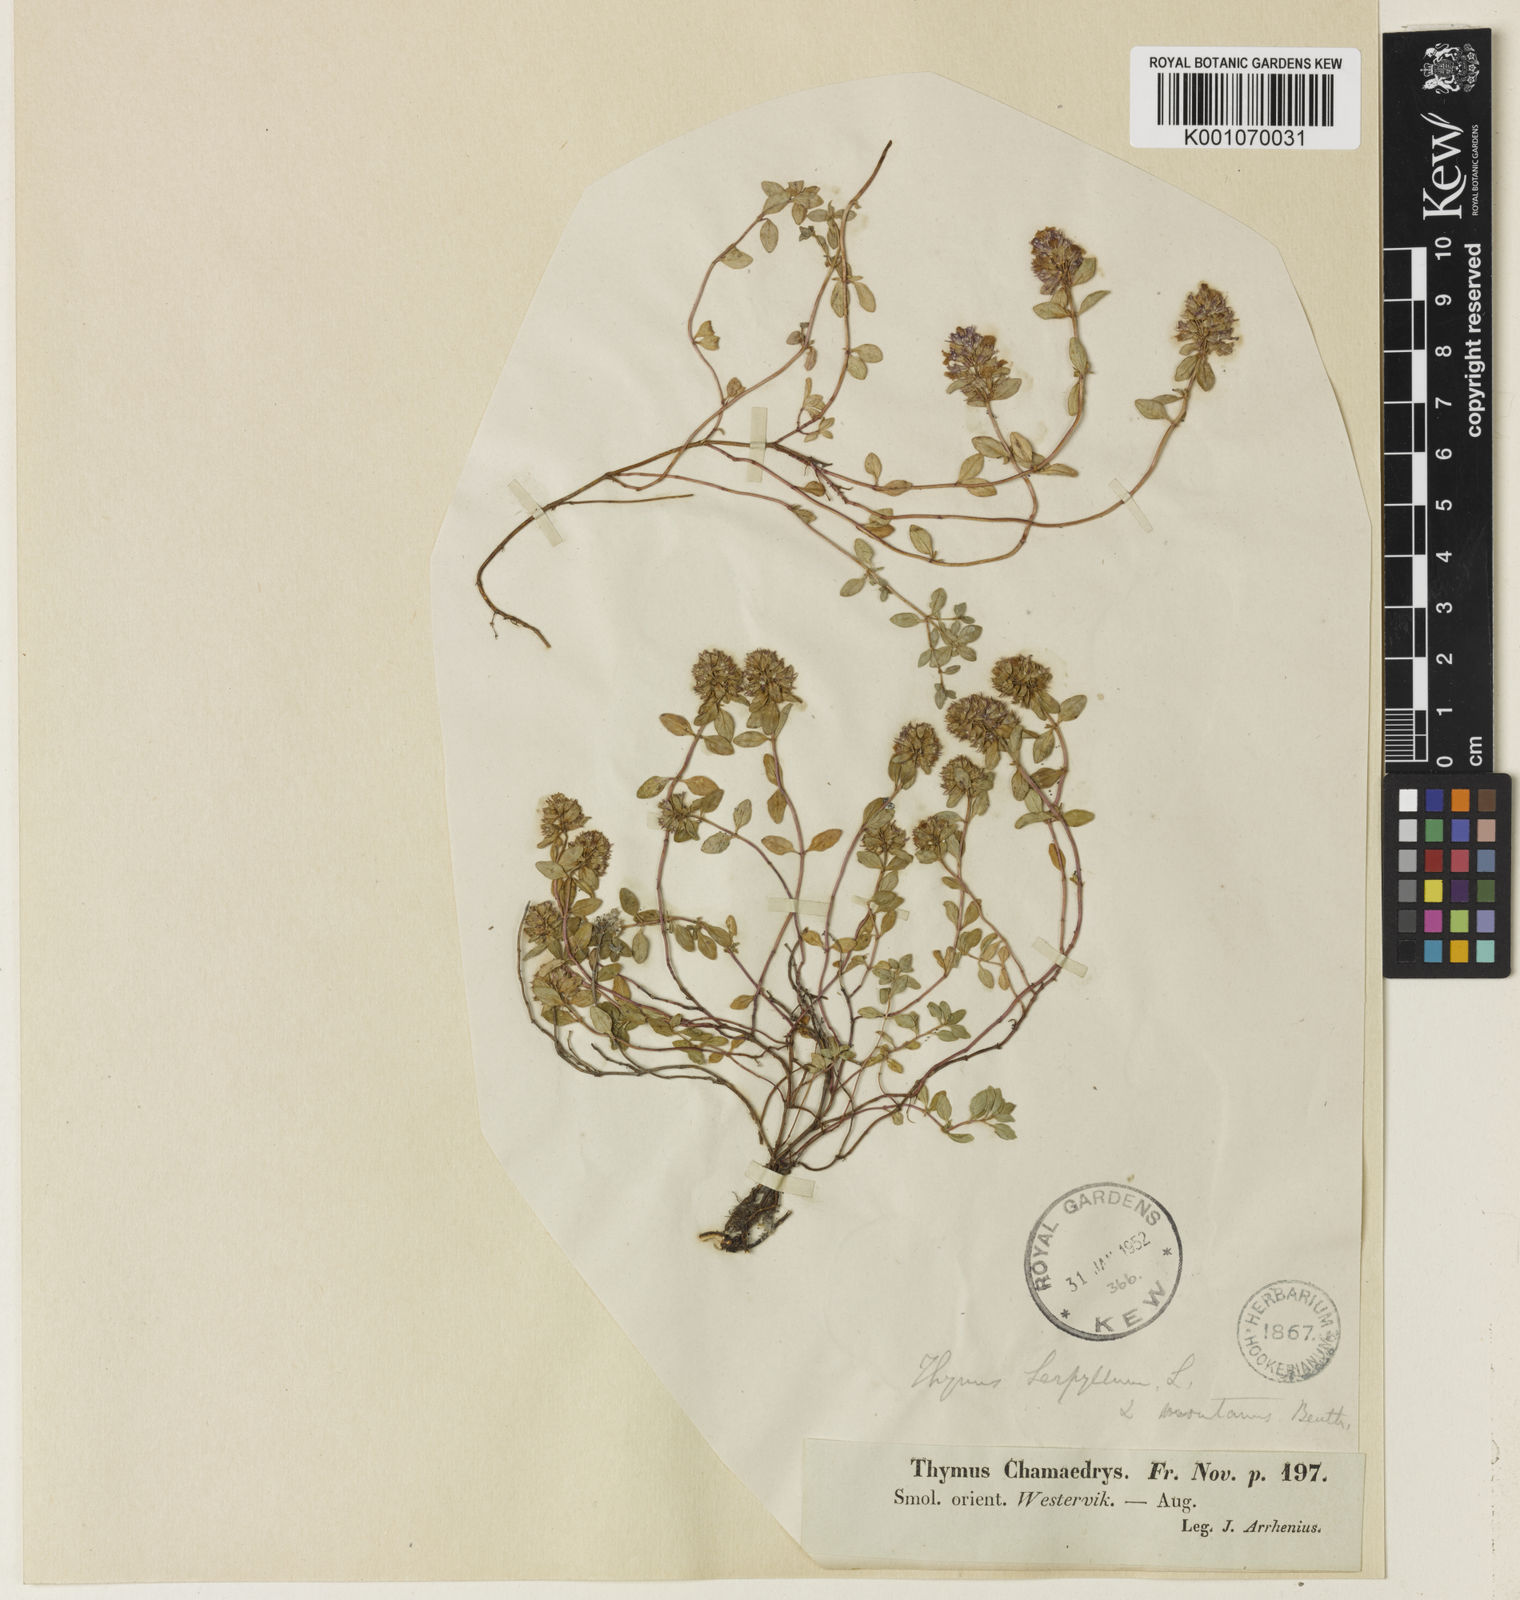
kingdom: Plantae
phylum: Tracheophyta
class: Magnoliopsida
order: Lamiales
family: Lamiaceae
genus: Thymus
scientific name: Thymus
